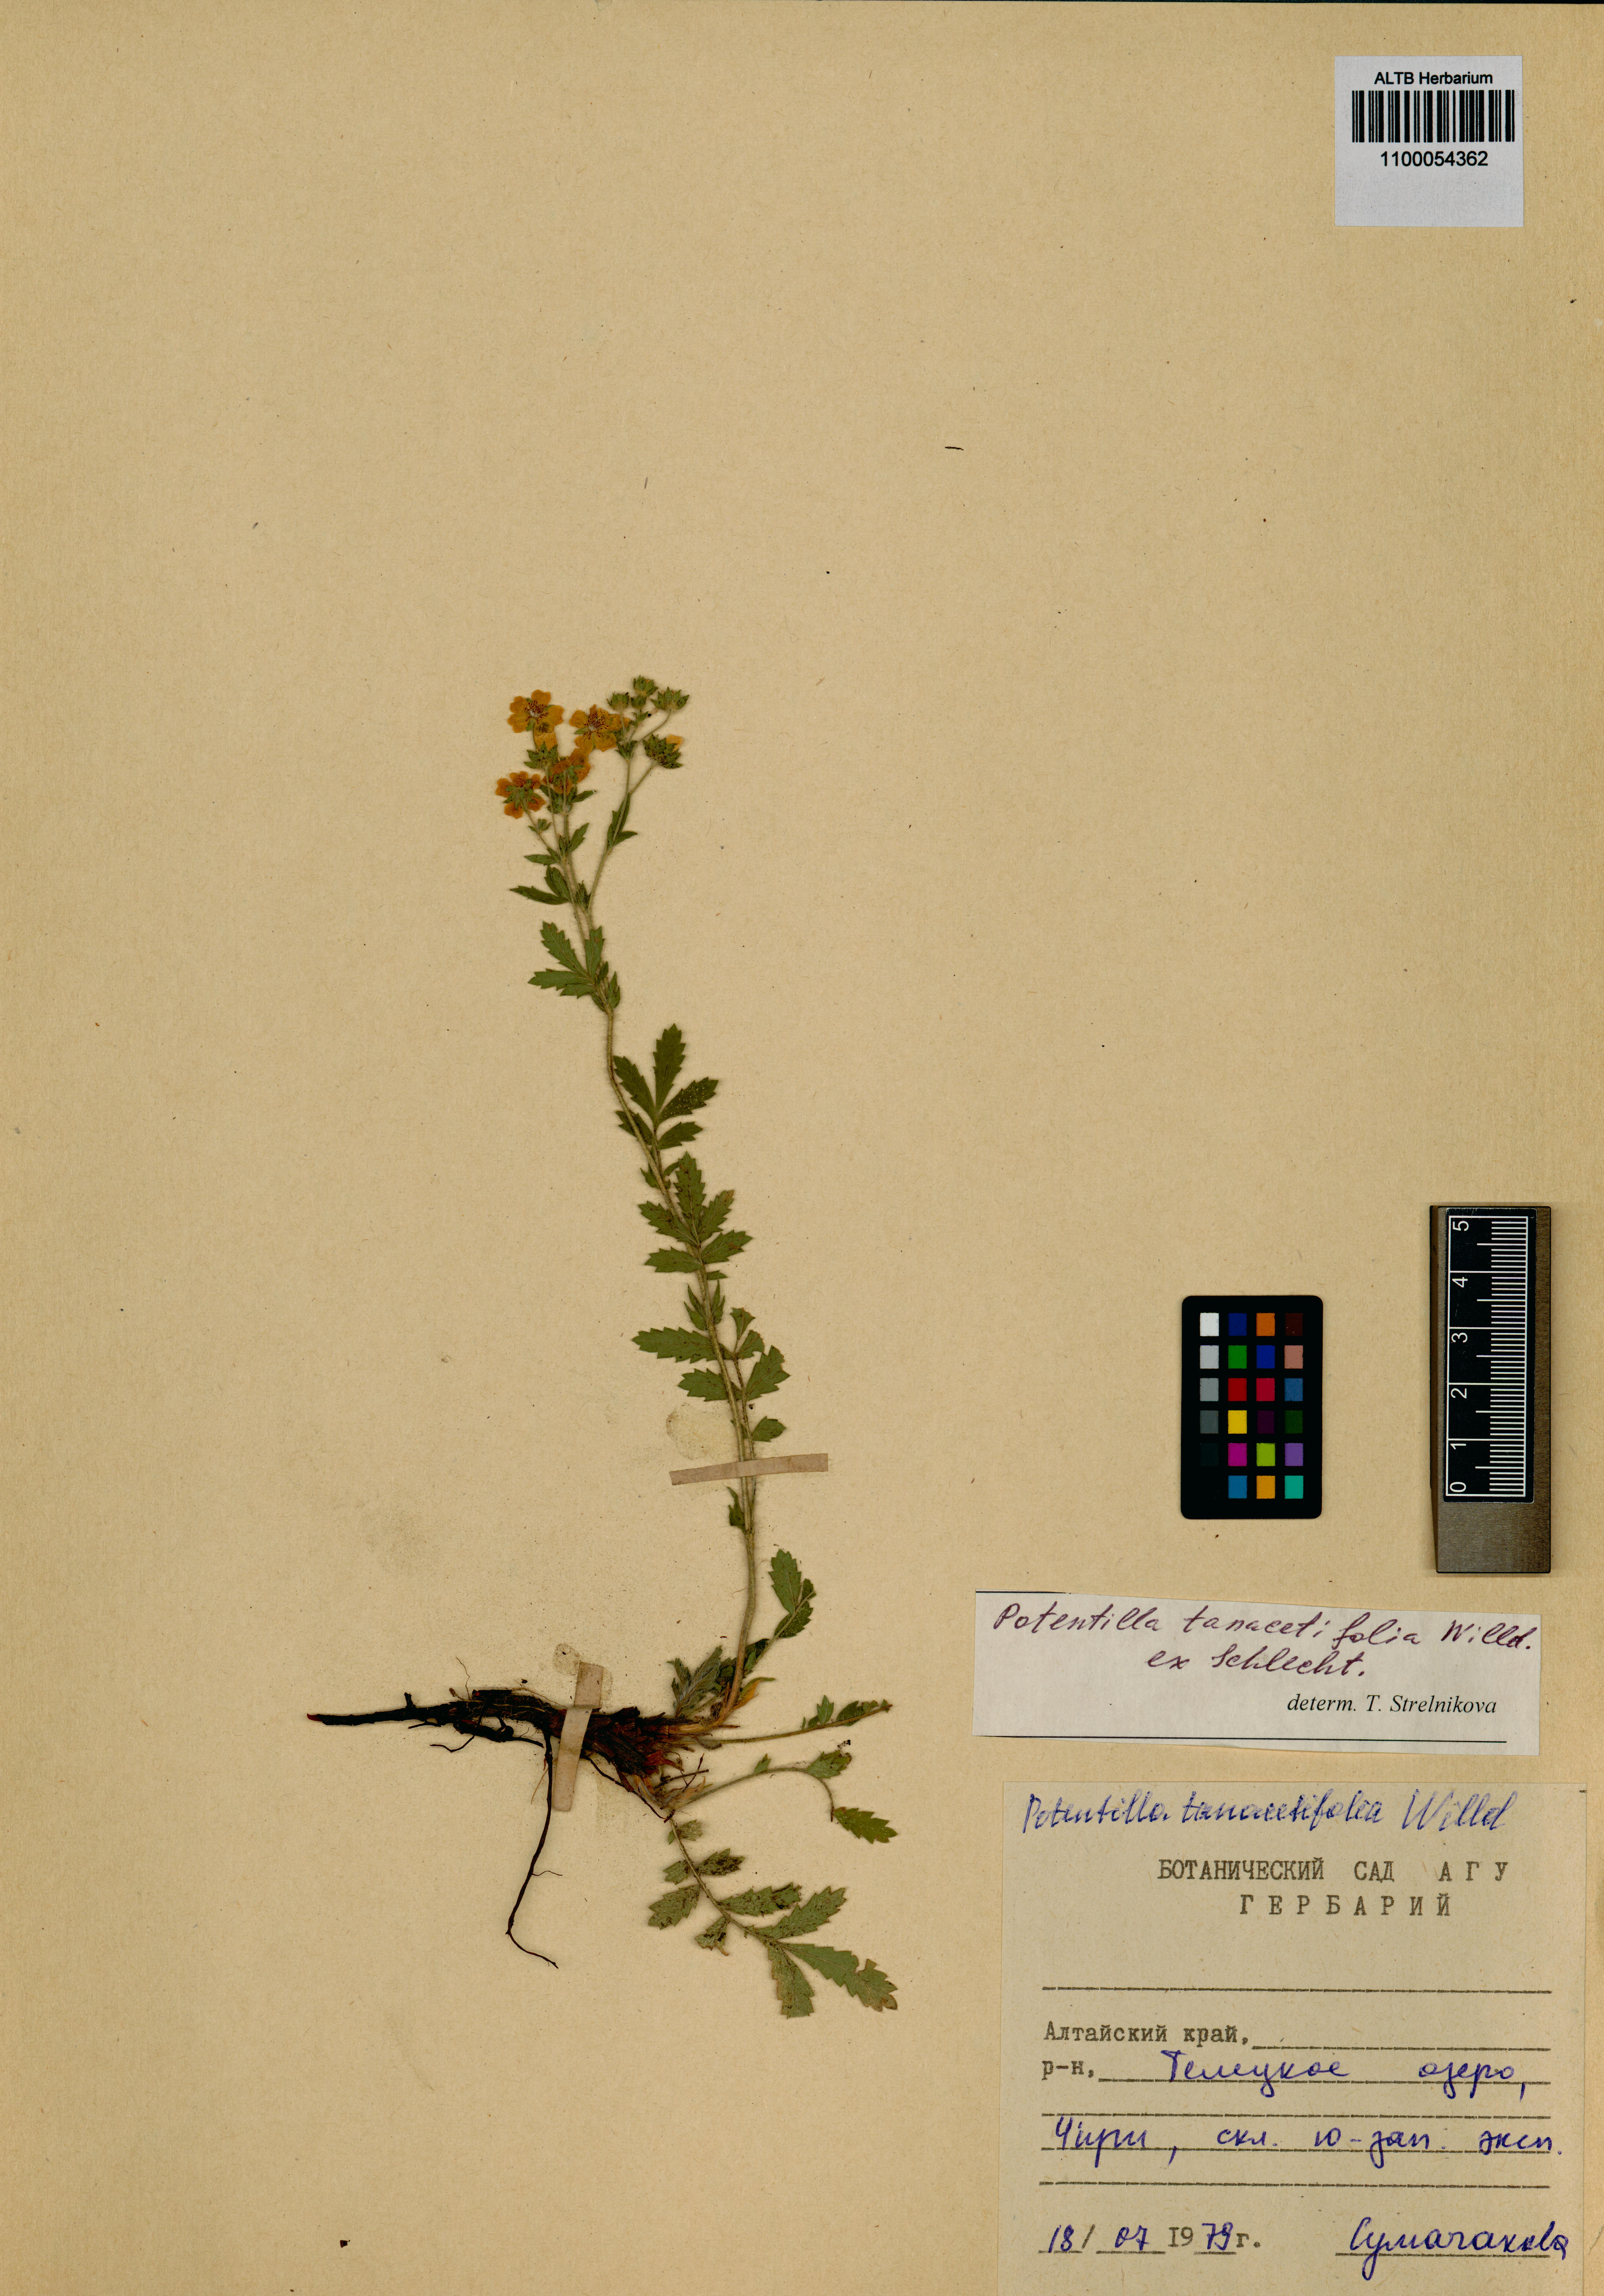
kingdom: Plantae
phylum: Tracheophyta
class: Magnoliopsida
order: Rosales
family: Rosaceae
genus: Potentilla
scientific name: Potentilla tanacetifolia
